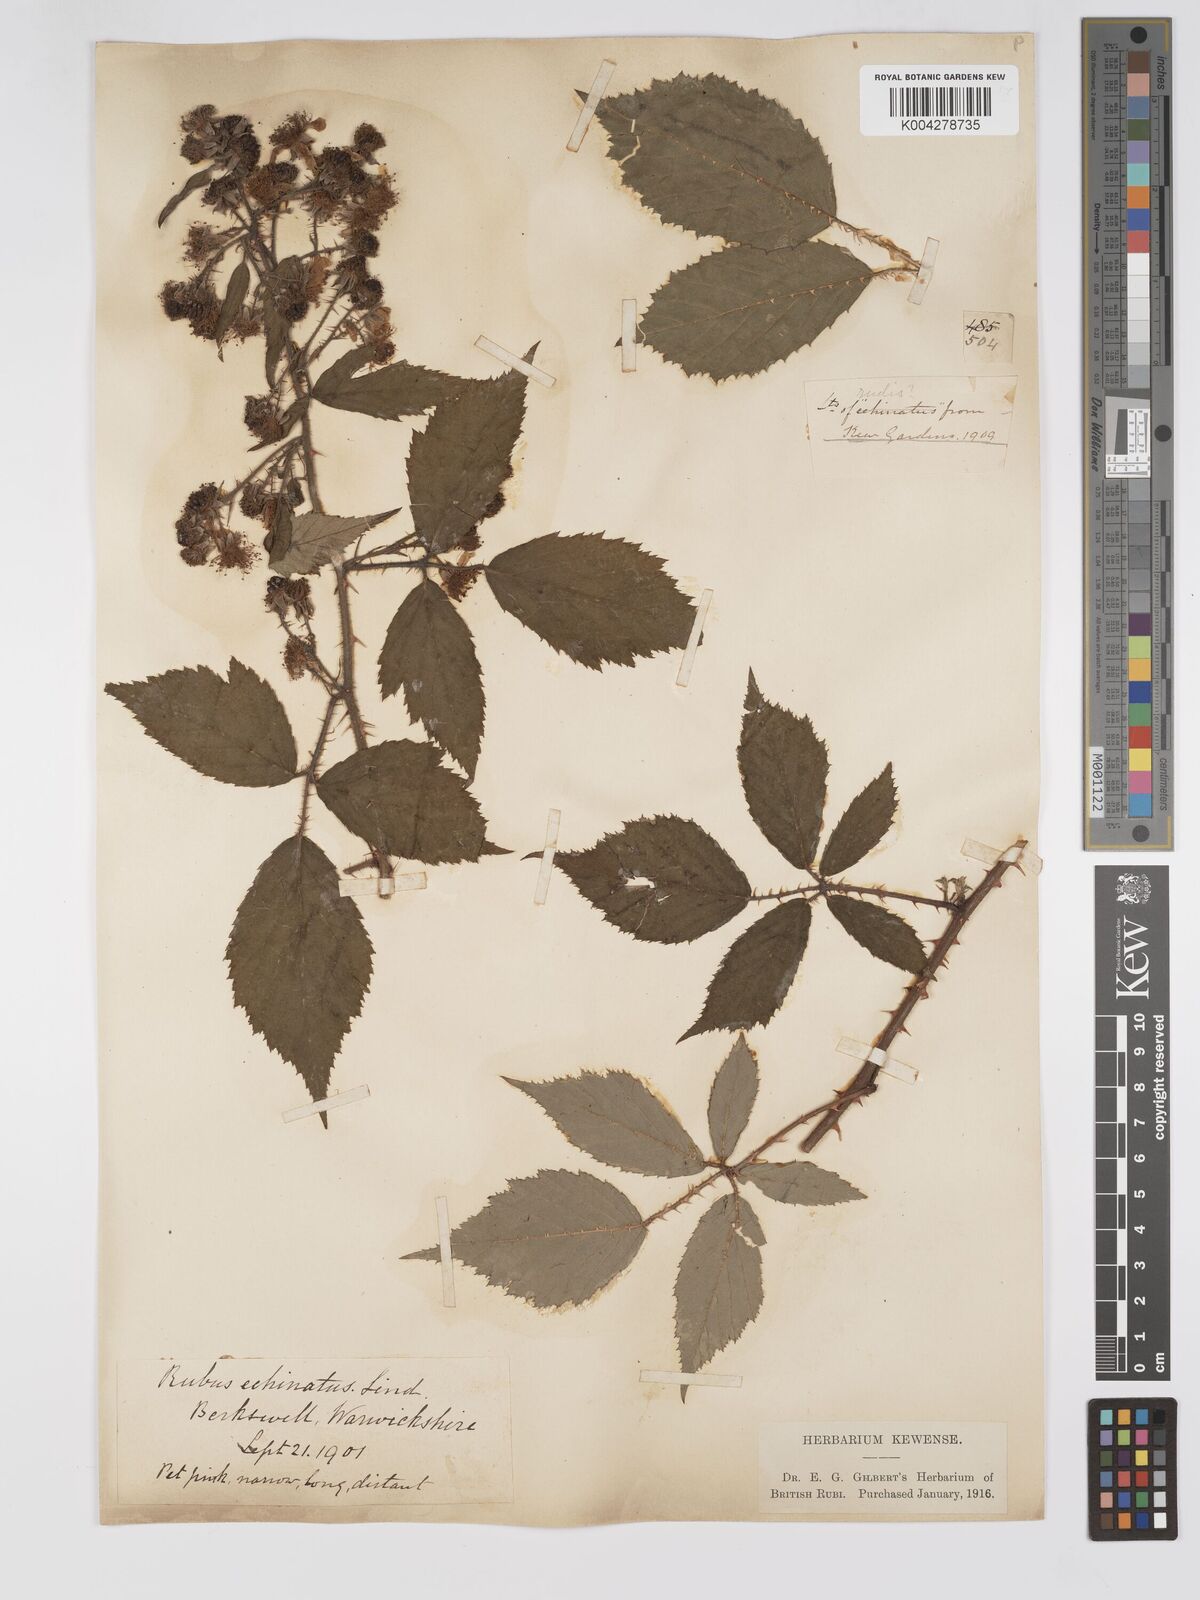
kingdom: Plantae
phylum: Tracheophyta
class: Magnoliopsida
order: Rosales
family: Rosaceae
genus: Rubus
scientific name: Rubus echinatus
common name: Echinate bramble
